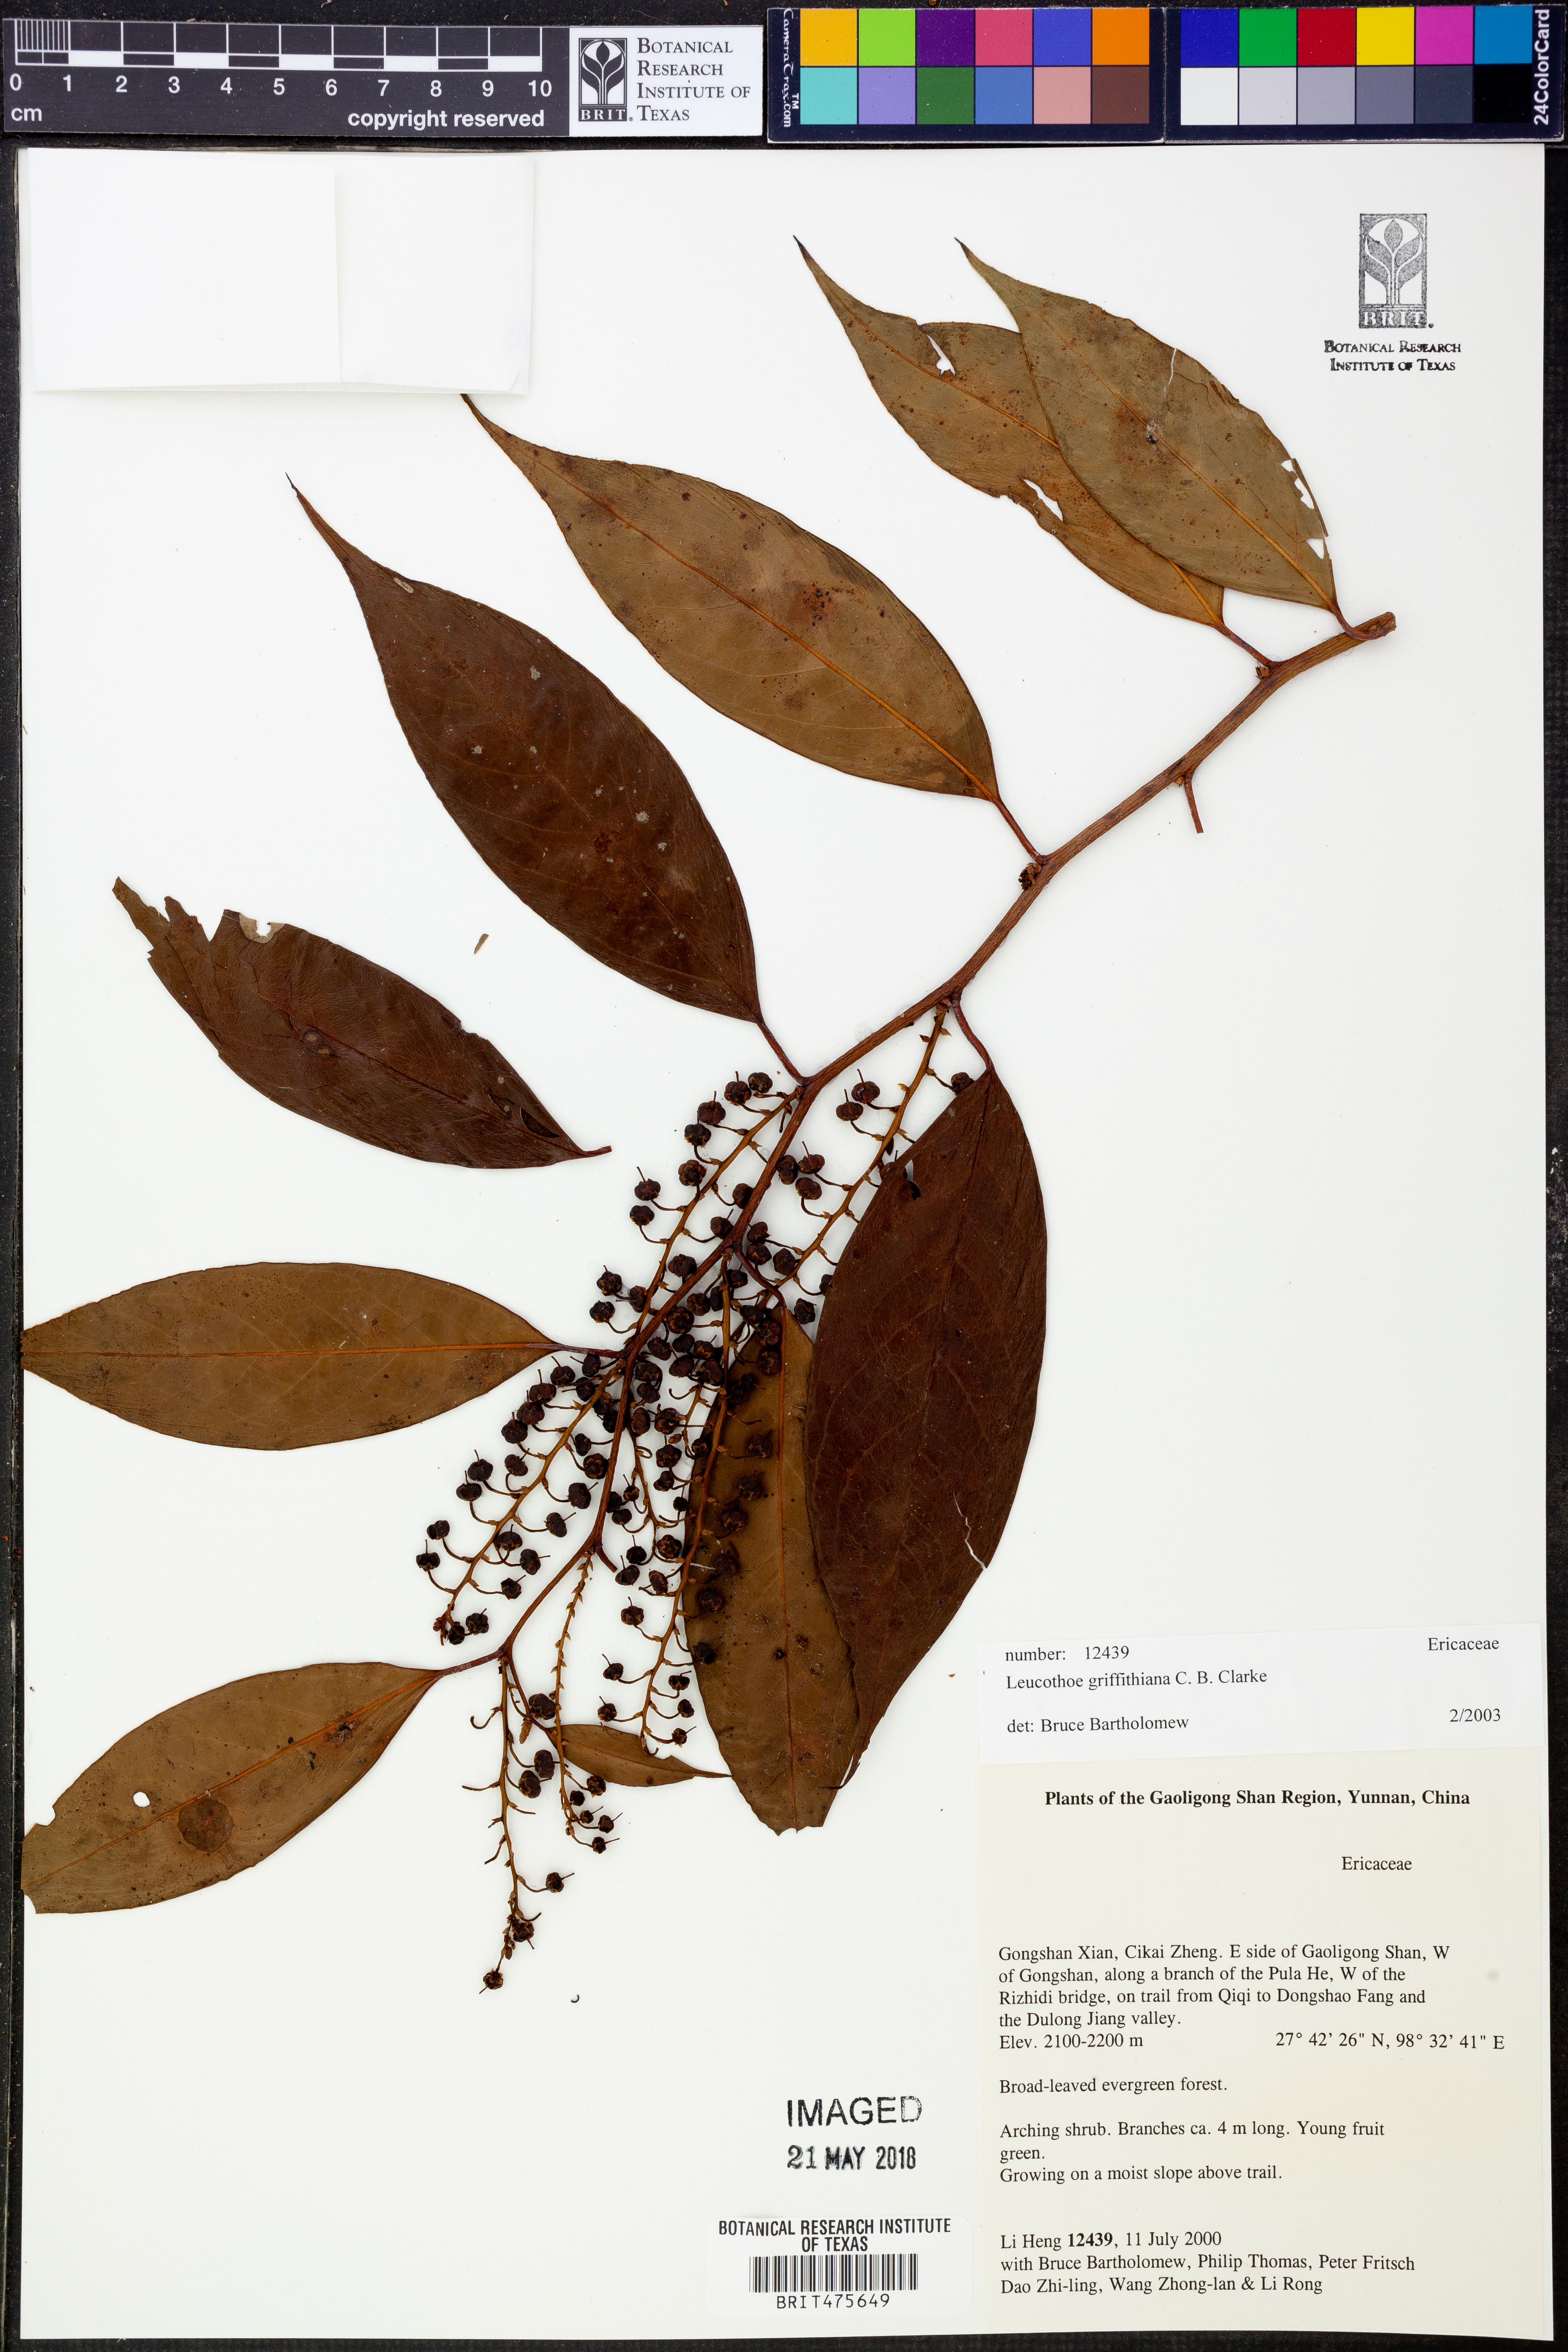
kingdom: Plantae
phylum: Tracheophyta
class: Magnoliopsida
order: Ericales
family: Ericaceae
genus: Leucothoe
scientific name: Leucothoe griffithiana
